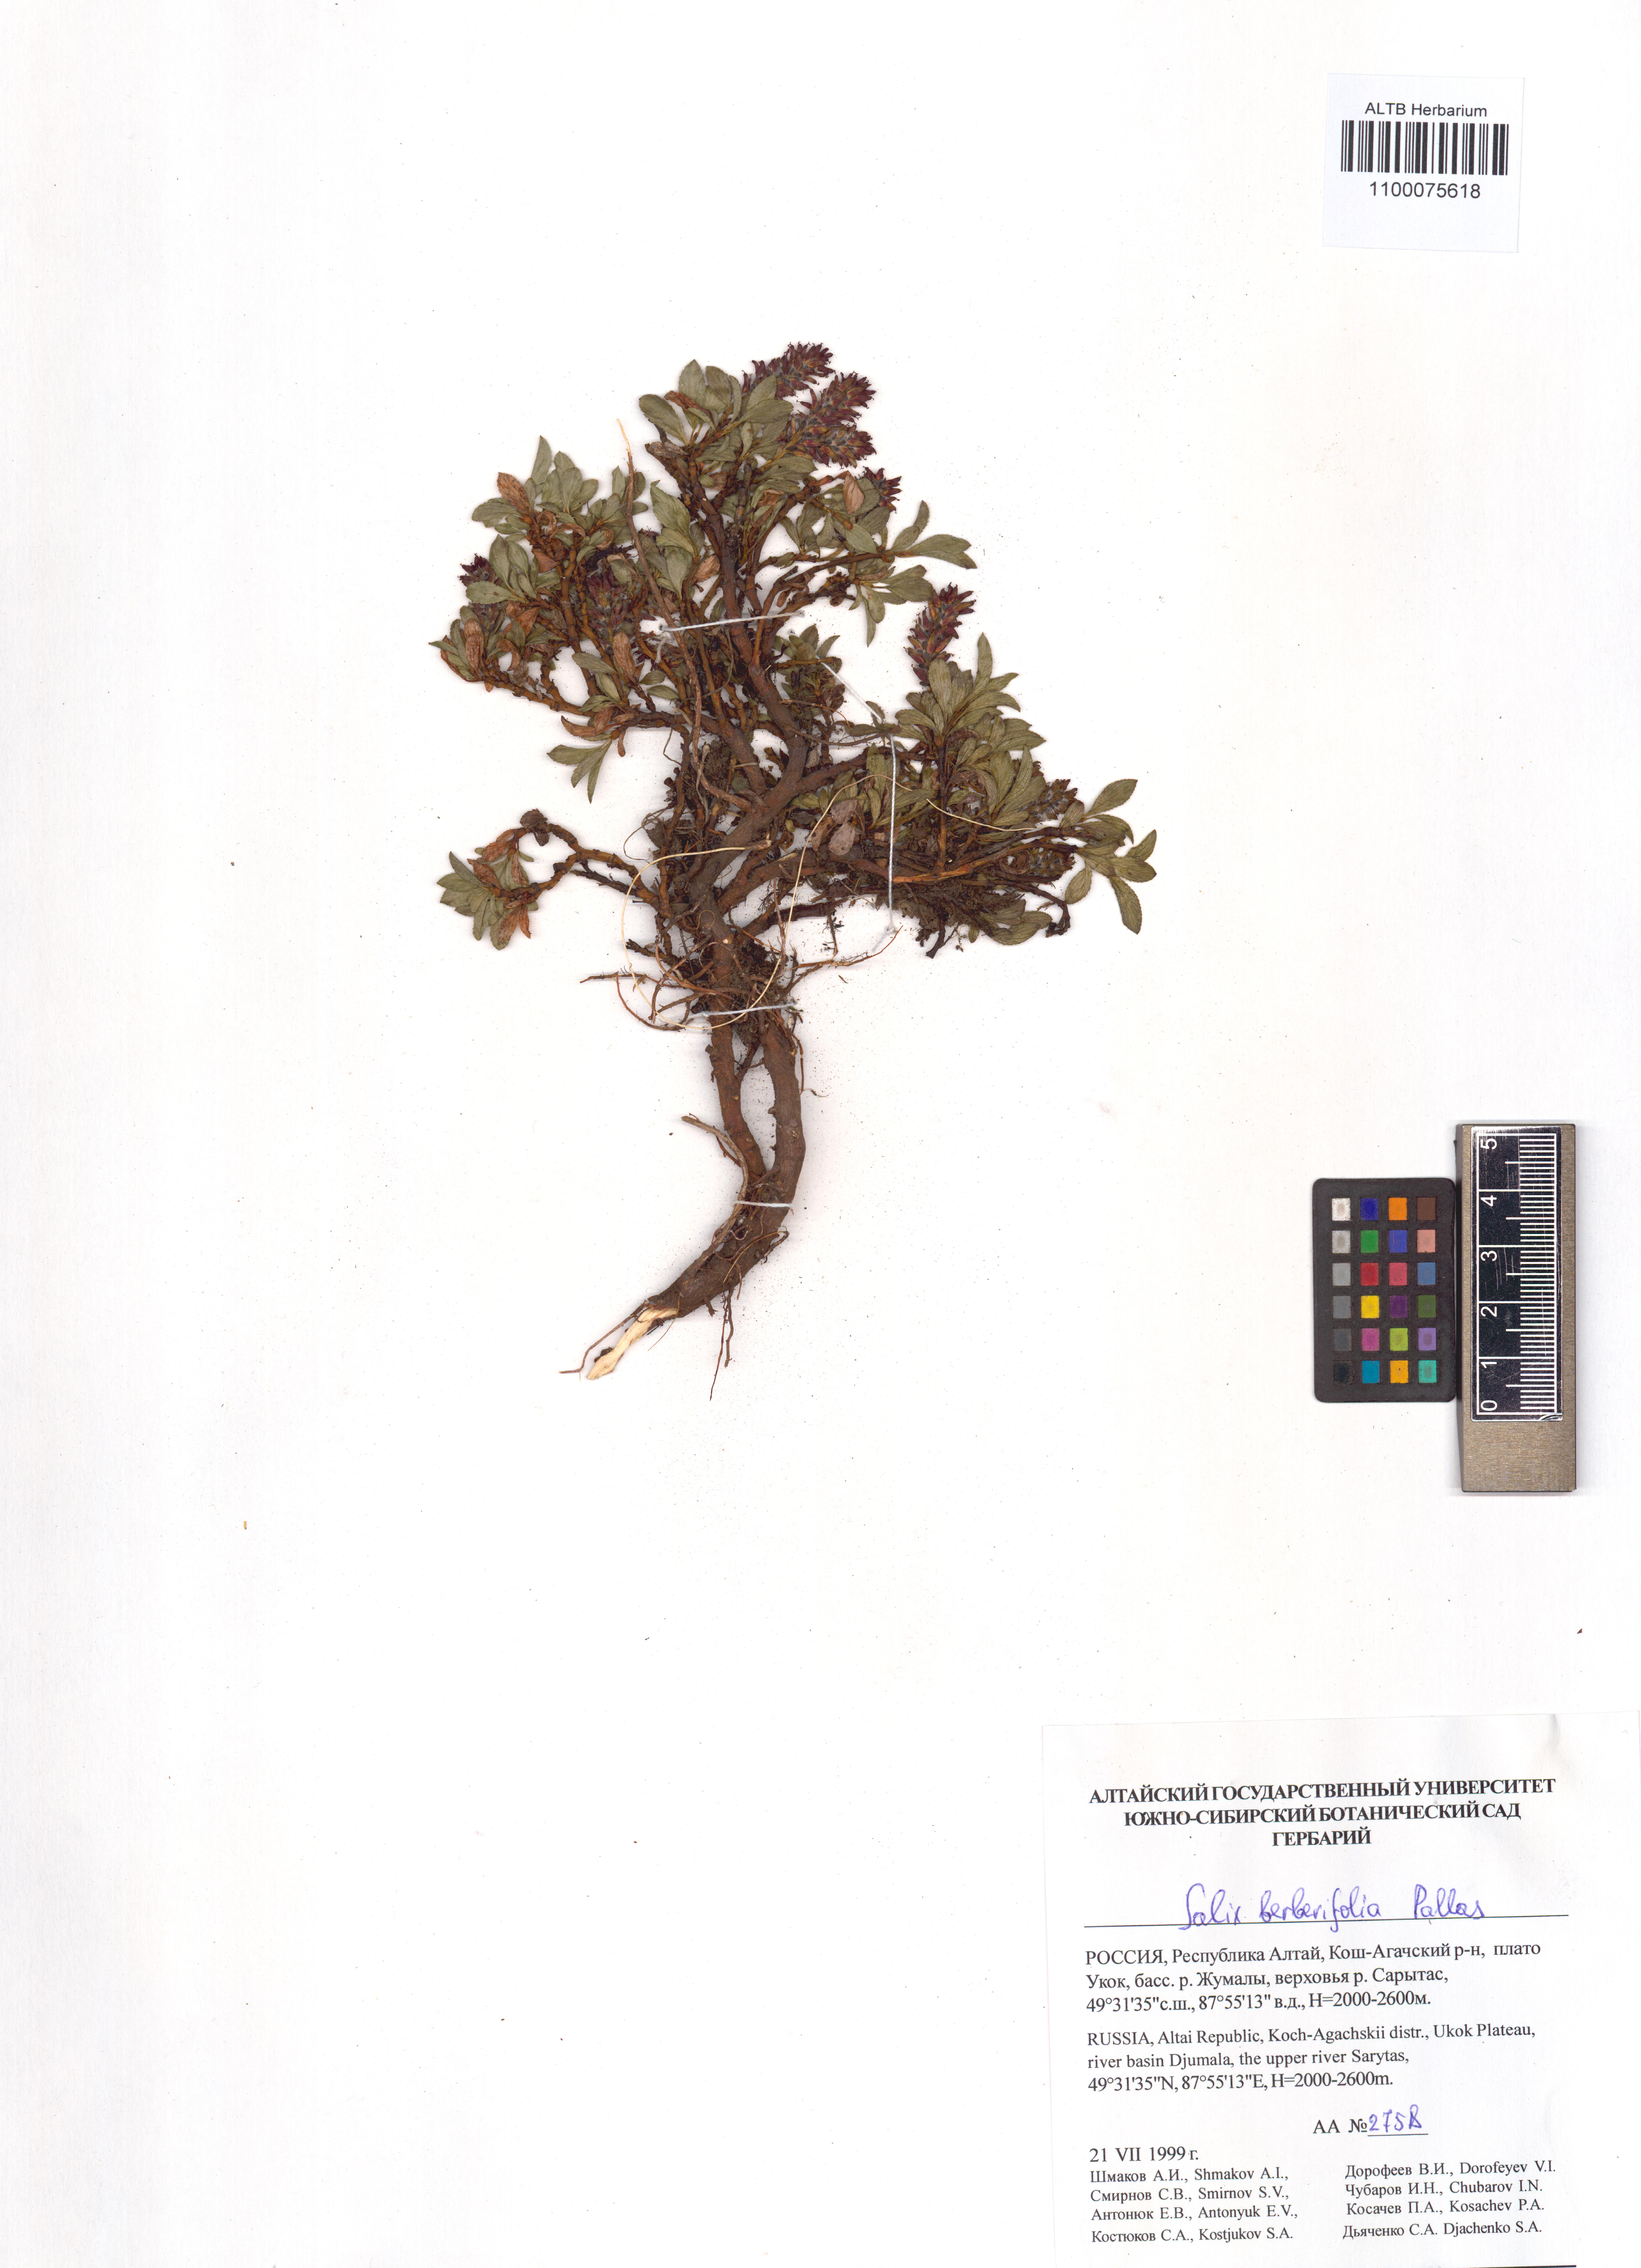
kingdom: Plantae
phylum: Tracheophyta
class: Magnoliopsida
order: Malpighiales
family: Salicaceae
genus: Salix
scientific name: Salix berberifolia
